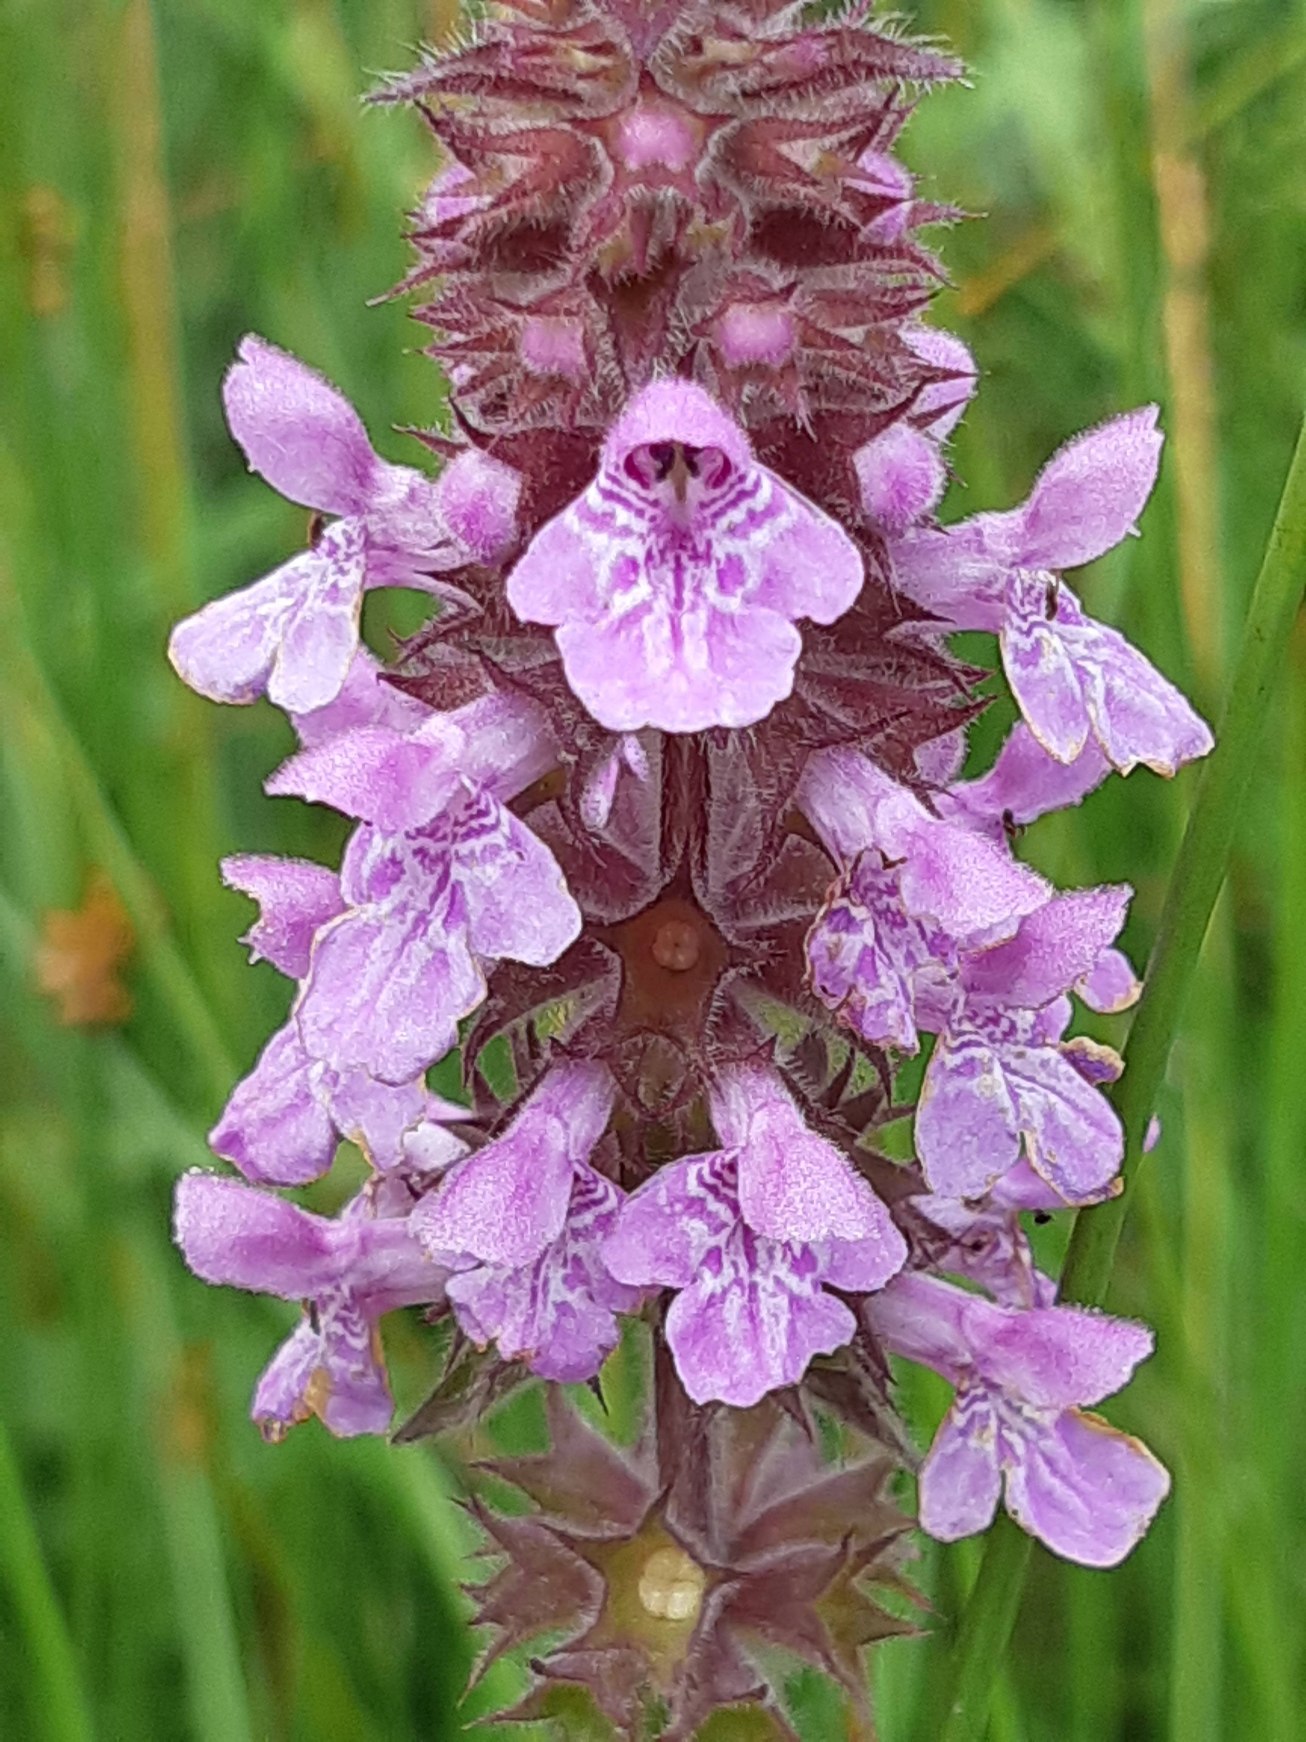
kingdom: Plantae
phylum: Tracheophyta
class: Magnoliopsida
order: Lamiales
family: Lamiaceae
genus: Stachys
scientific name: Stachys palustris
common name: Kær-galtetand
